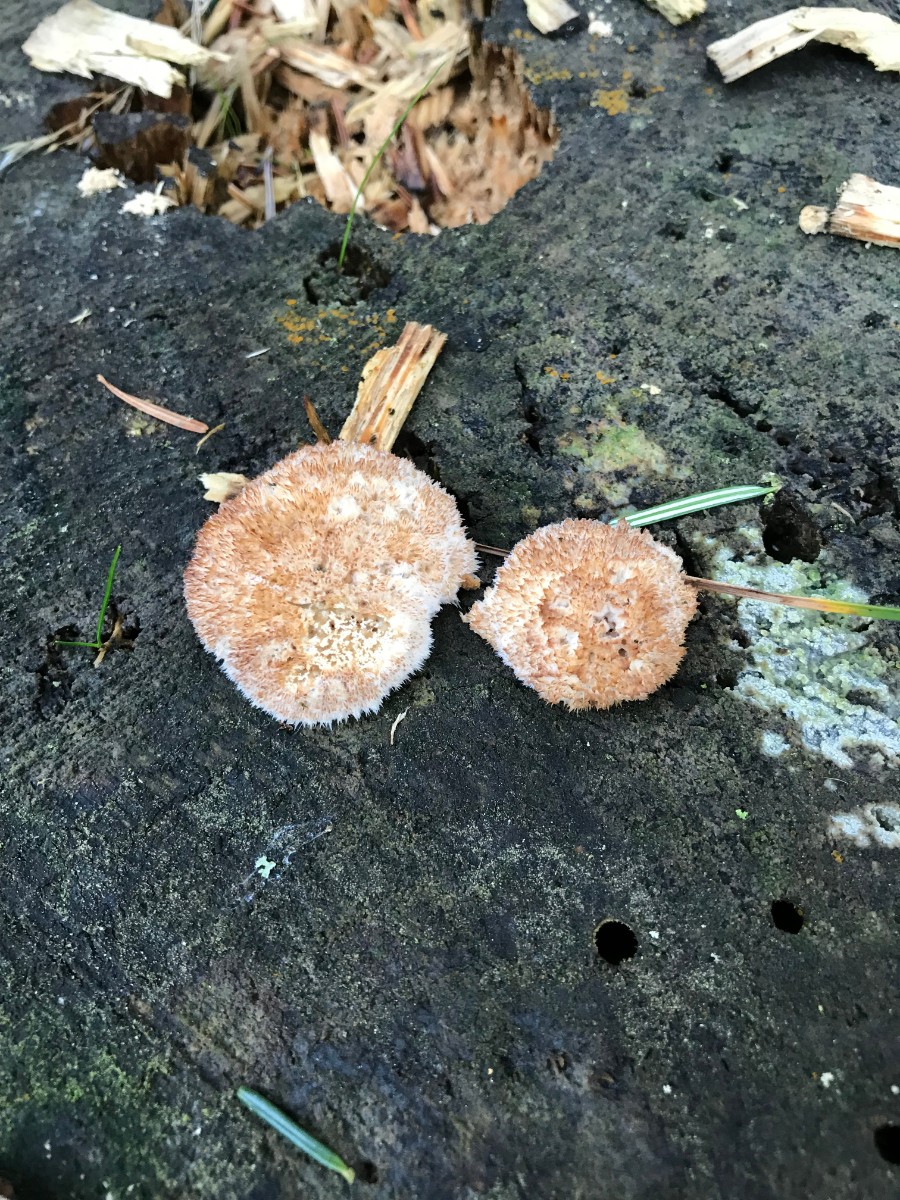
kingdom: Fungi
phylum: Basidiomycota
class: Agaricomycetes
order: Polyporales
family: Dacryobolaceae
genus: Postia
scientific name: Postia ptychogaster
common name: støvende kødporesvamp
